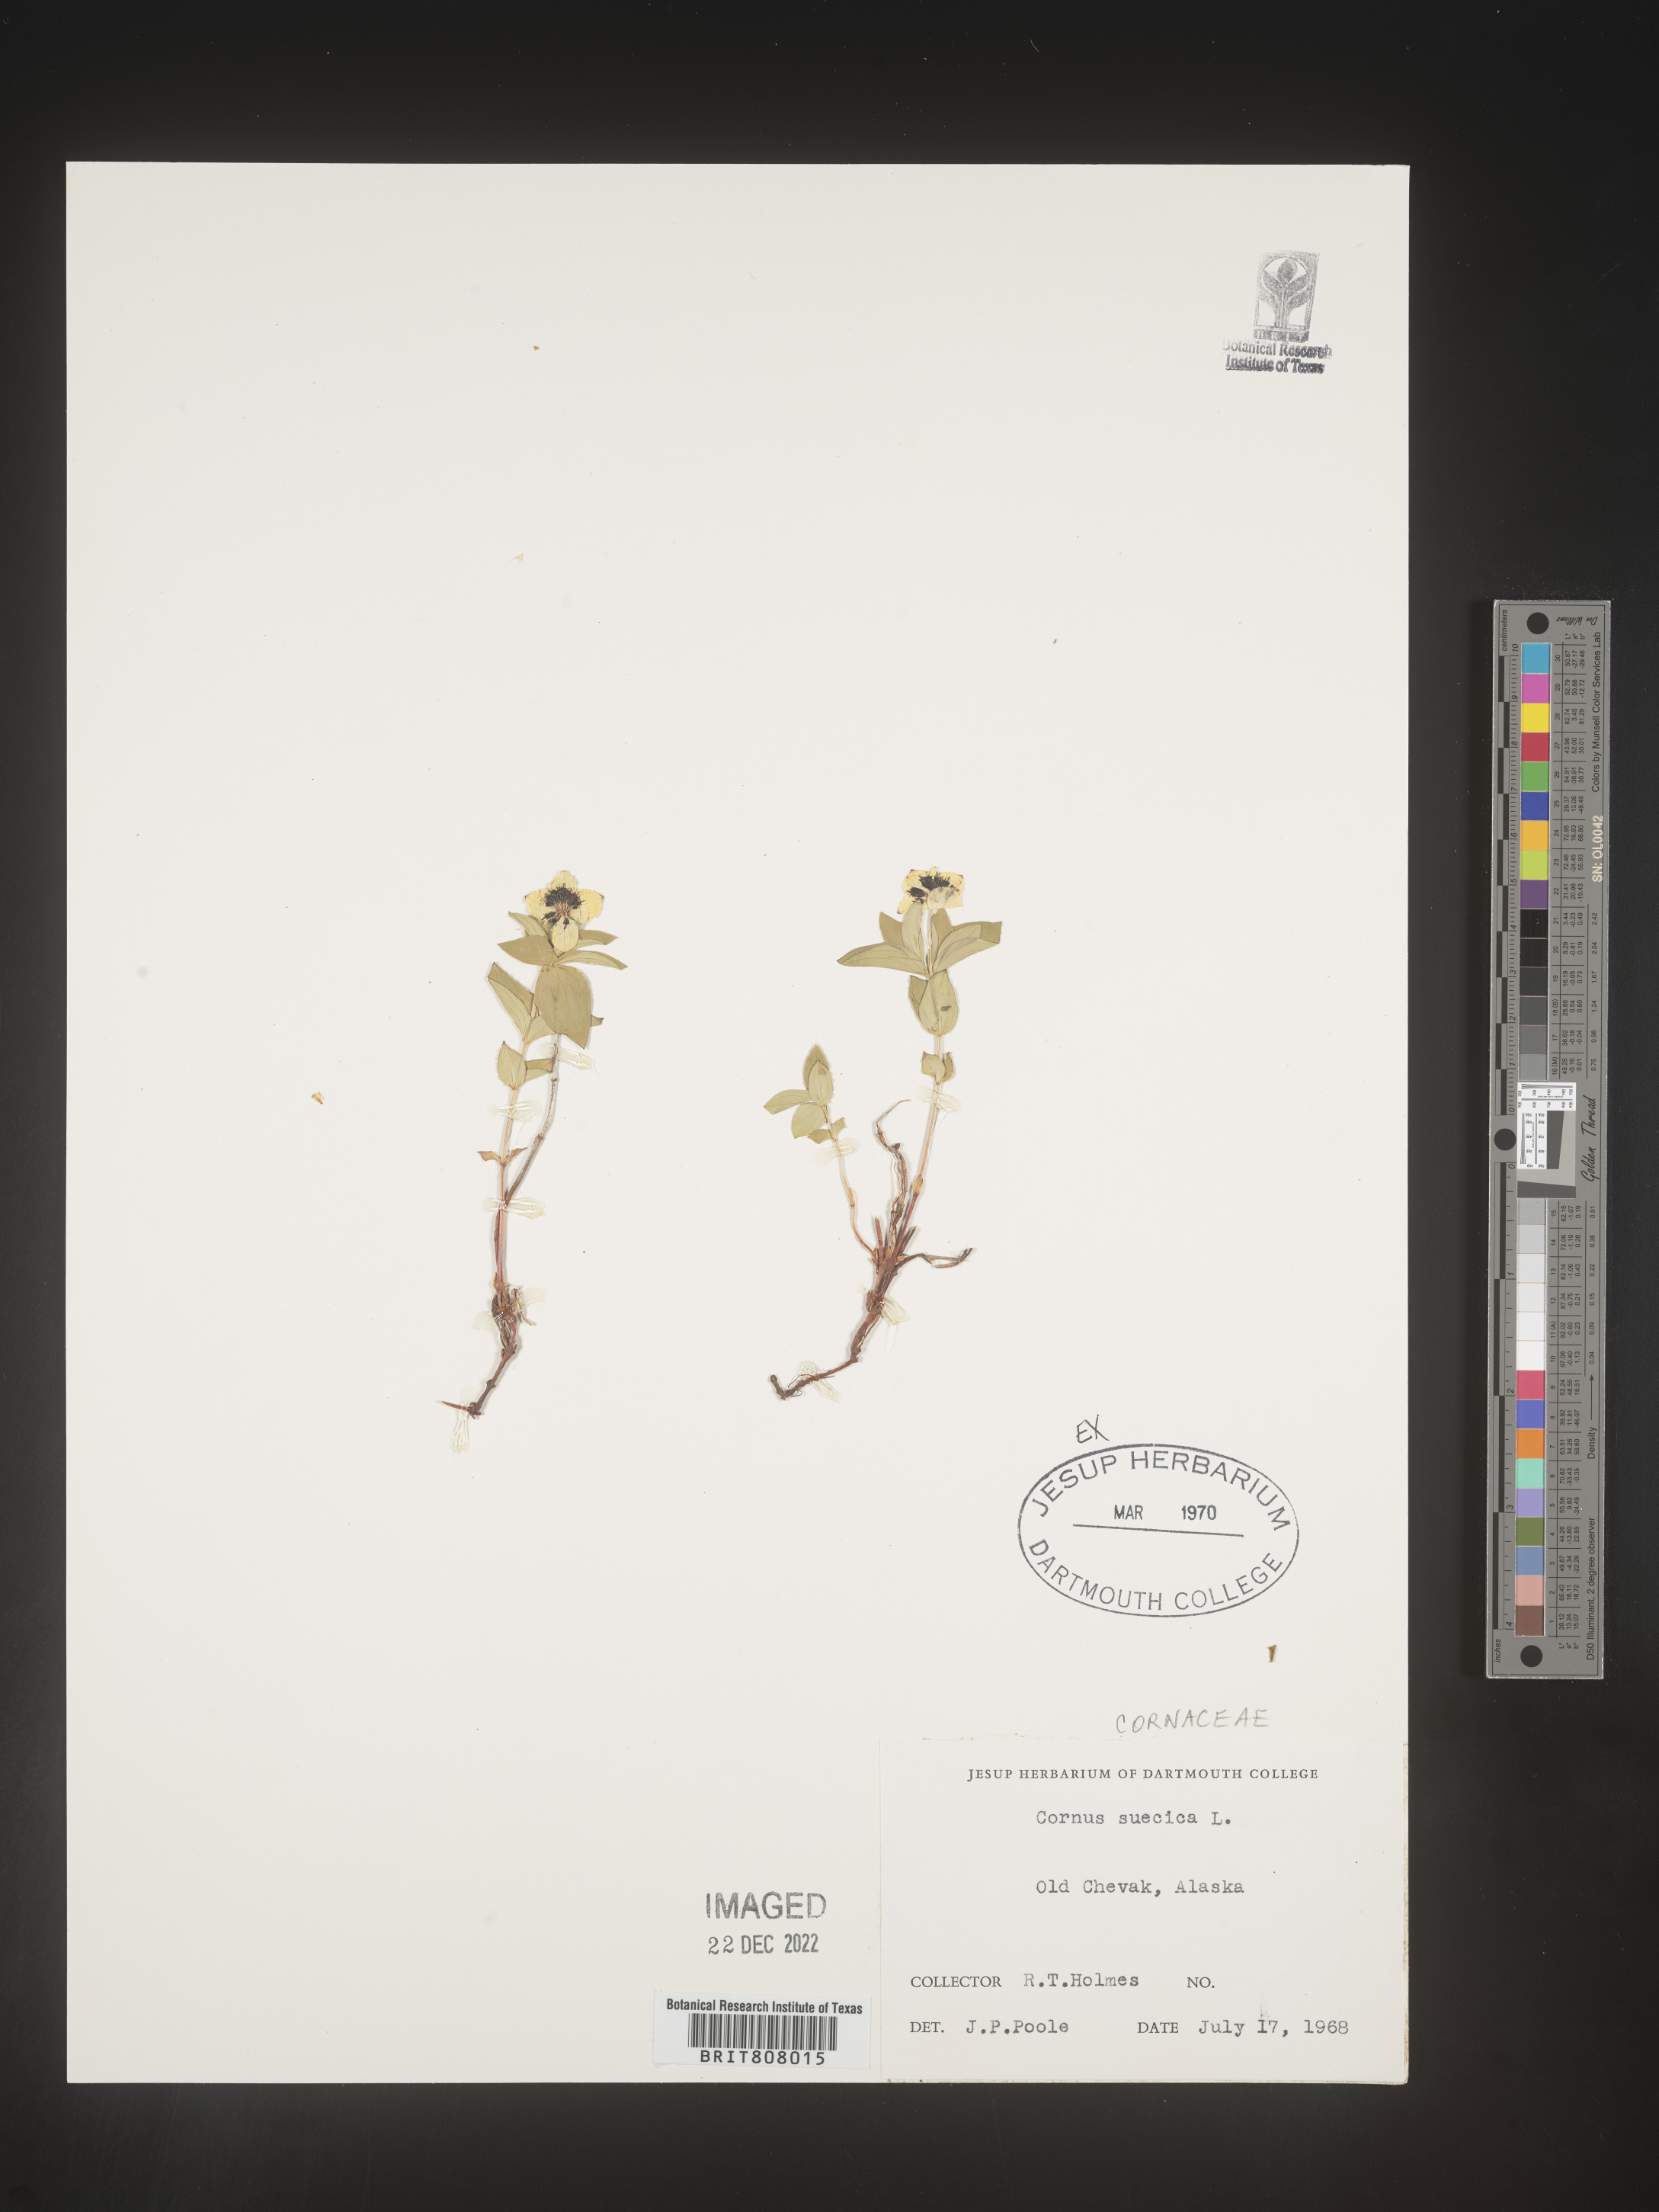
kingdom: Plantae
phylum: Tracheophyta
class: Magnoliopsida
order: Cornales
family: Cornaceae
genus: Cornus
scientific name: Cornus
